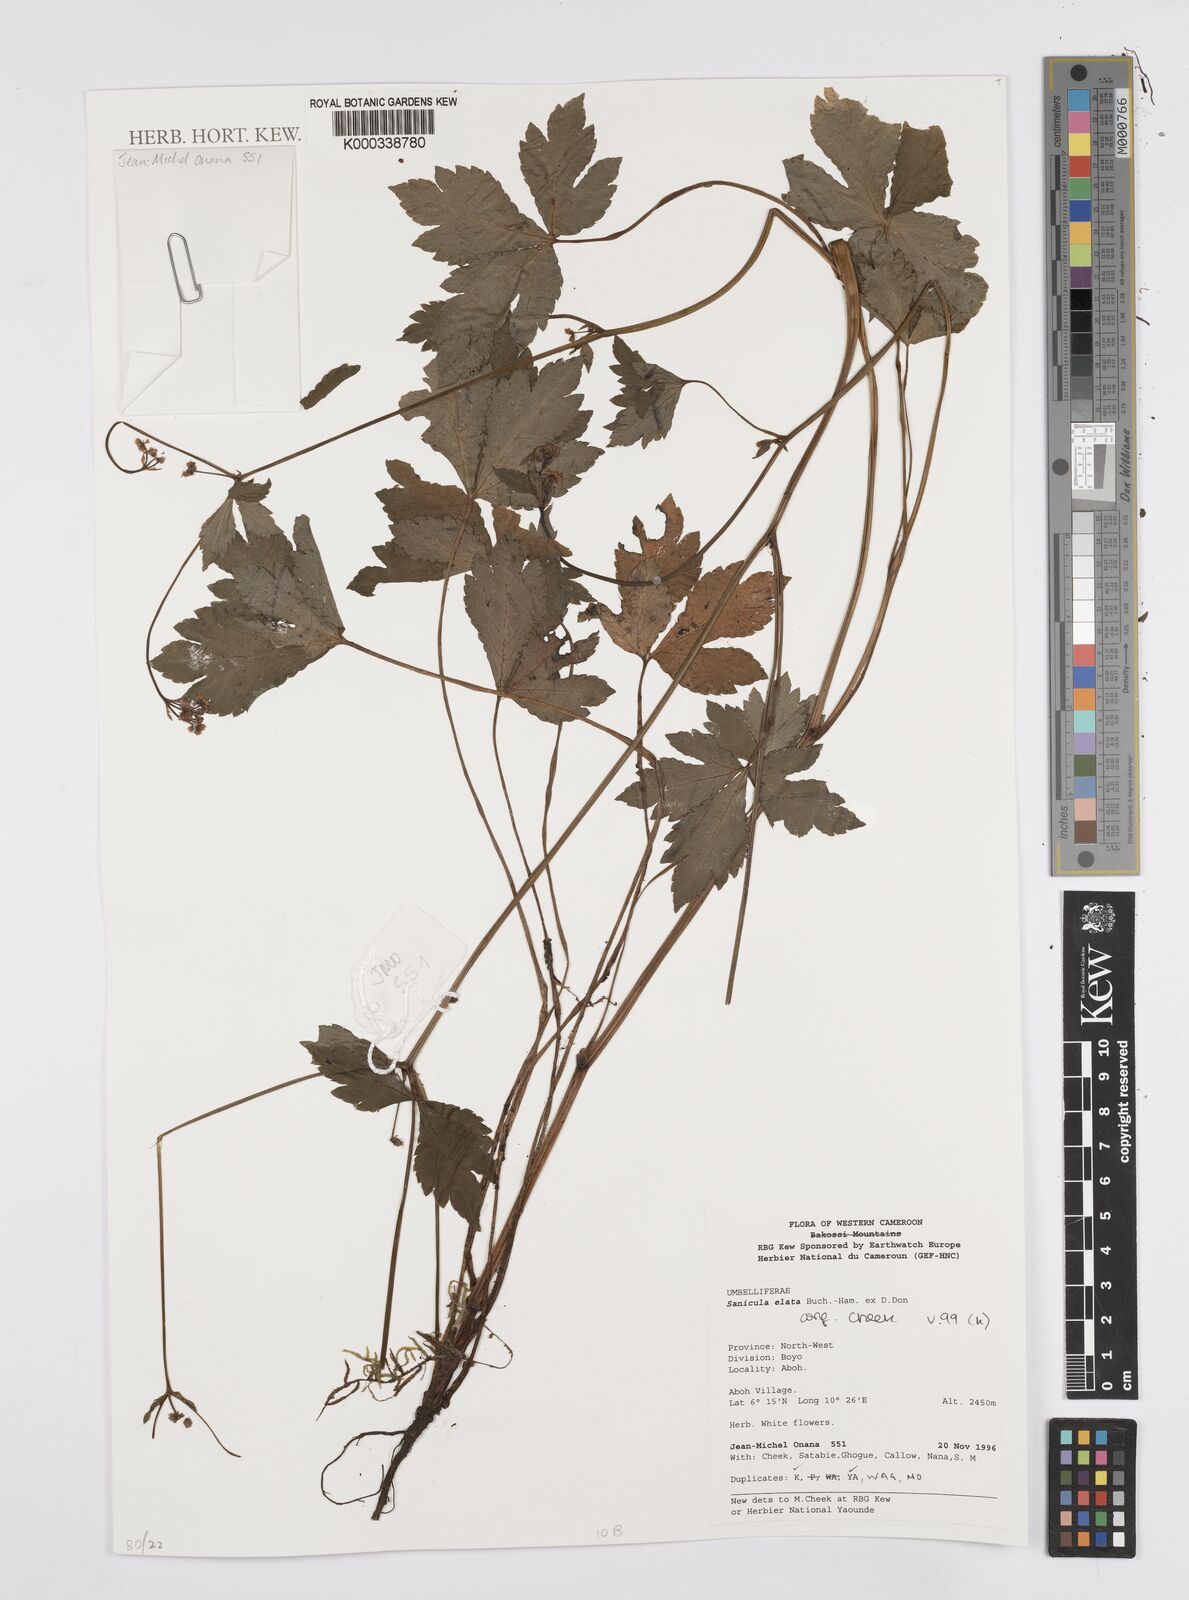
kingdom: Plantae
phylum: Tracheophyta
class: Magnoliopsida
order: Apiales
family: Apiaceae
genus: Sanicula
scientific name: Sanicula
